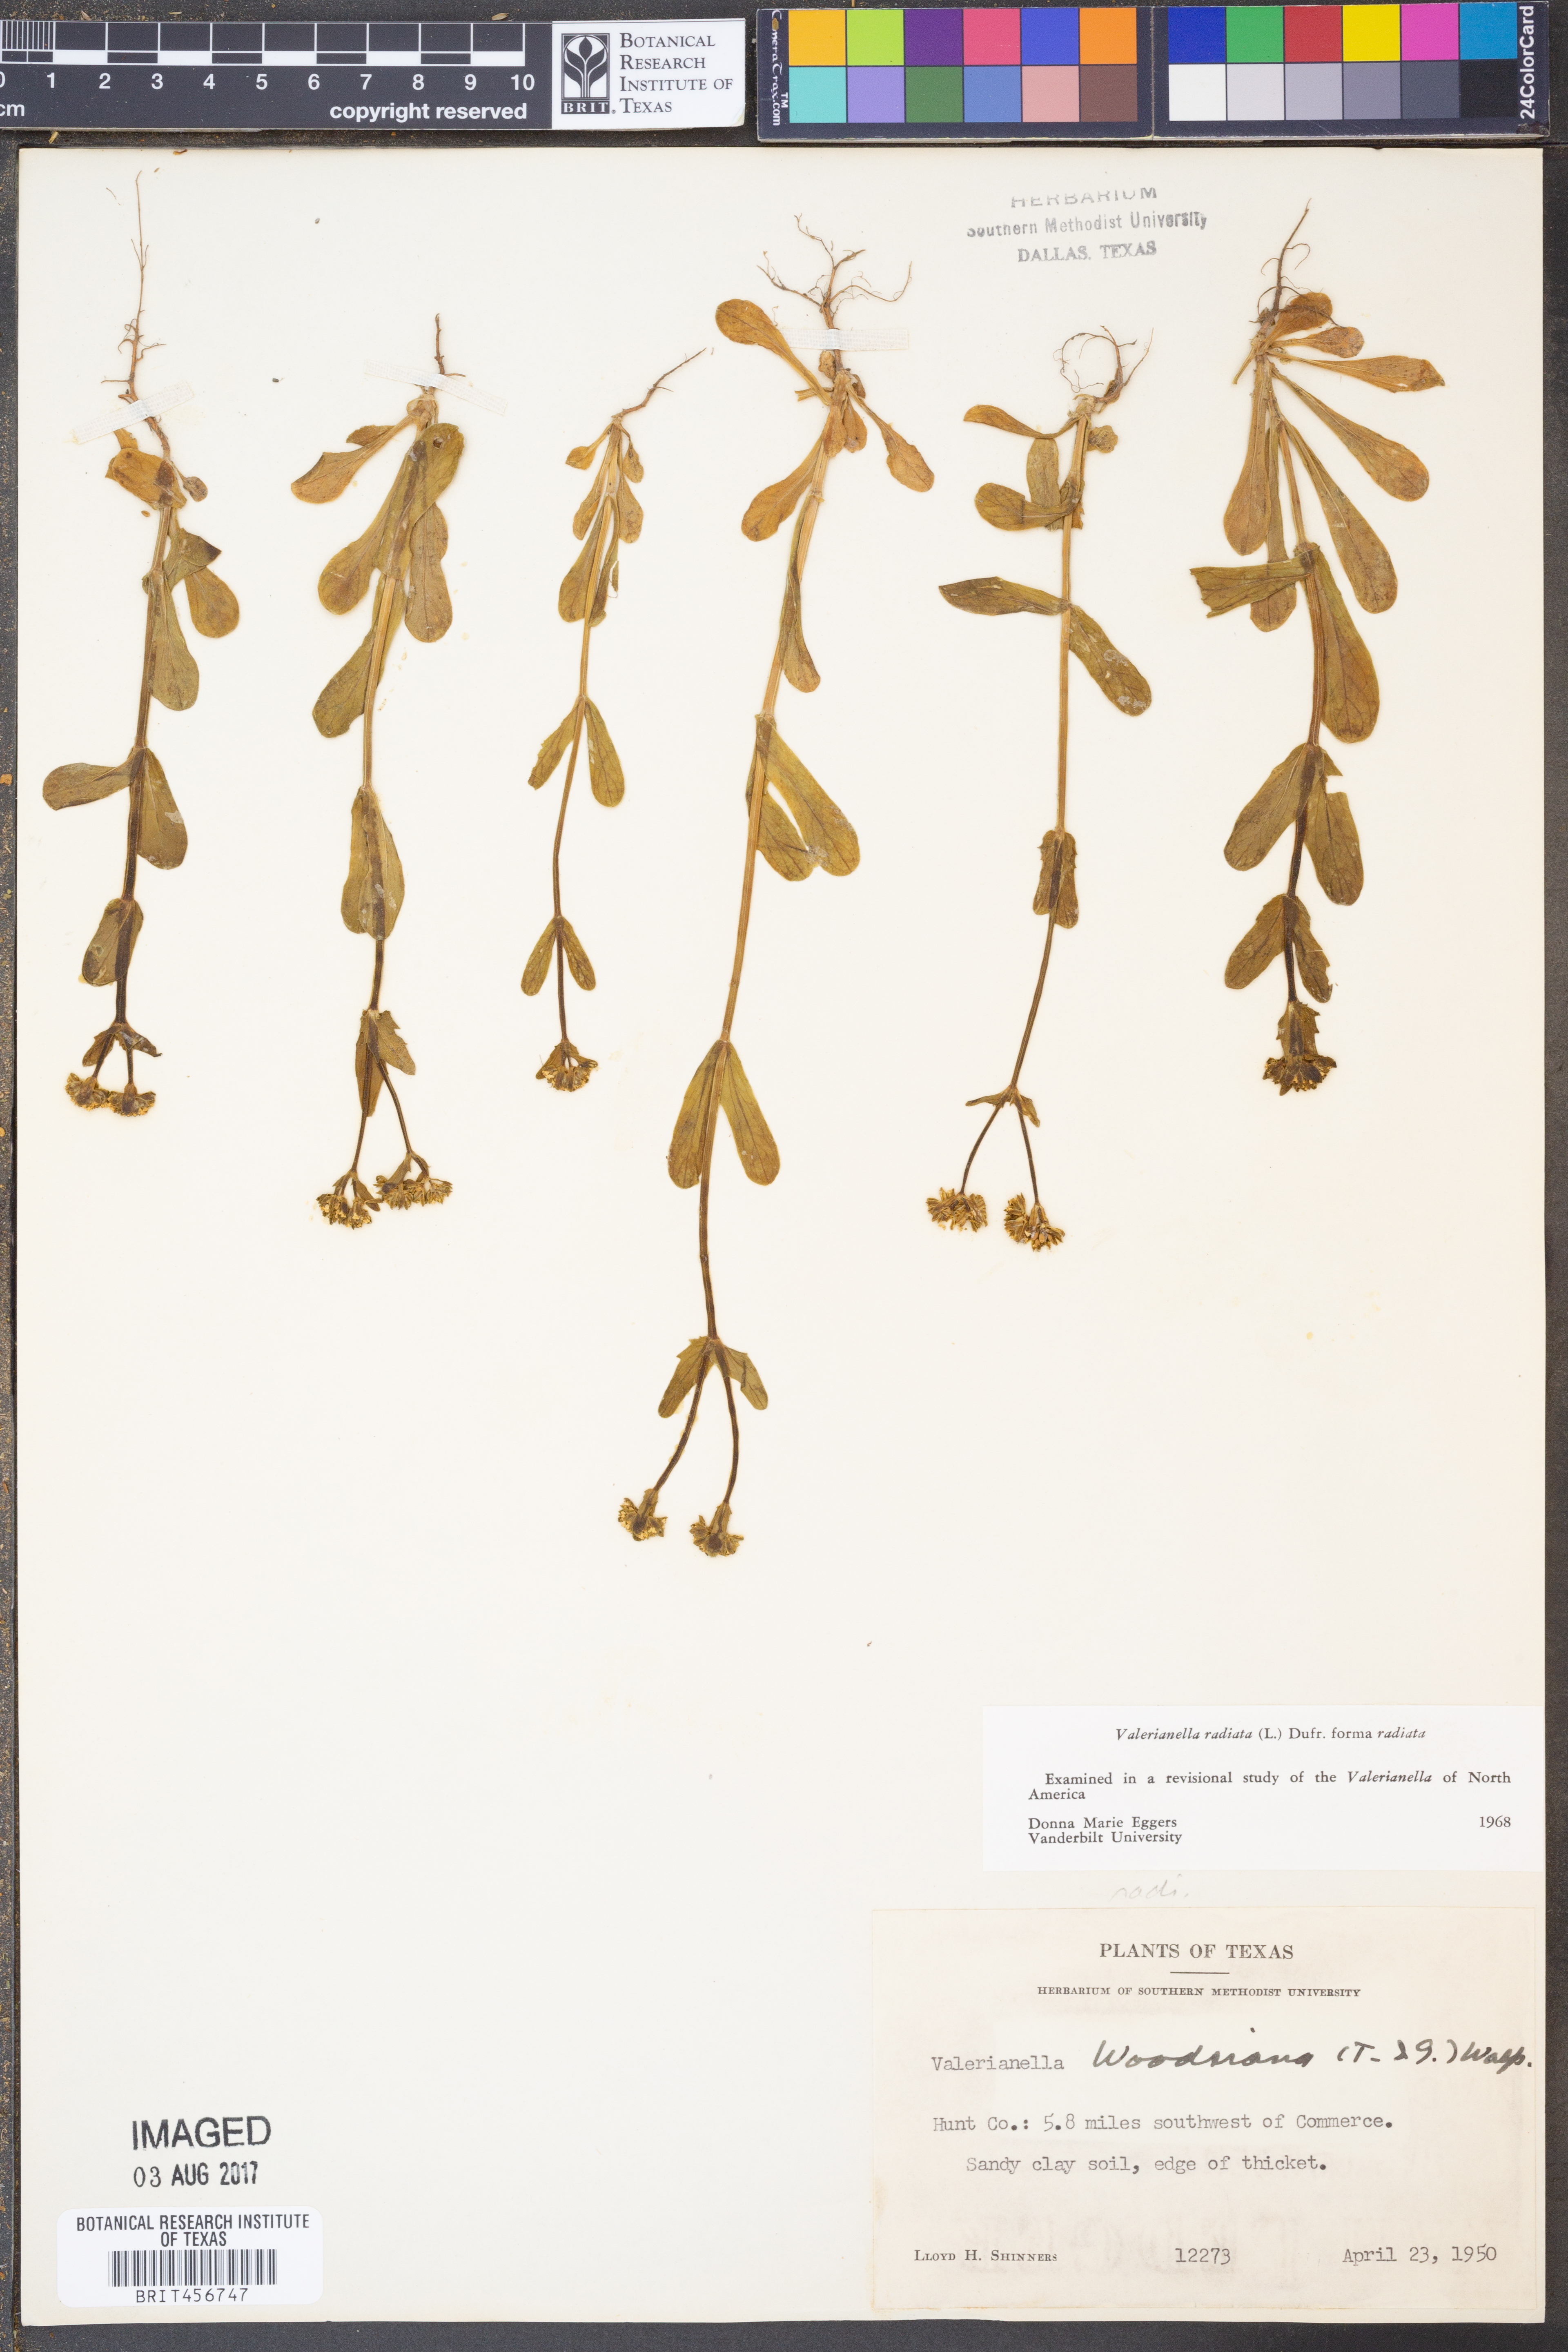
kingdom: Plantae
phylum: Tracheophyta
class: Magnoliopsida
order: Dipsacales
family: Caprifoliaceae
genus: Valerianella
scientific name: Valerianella radiata
